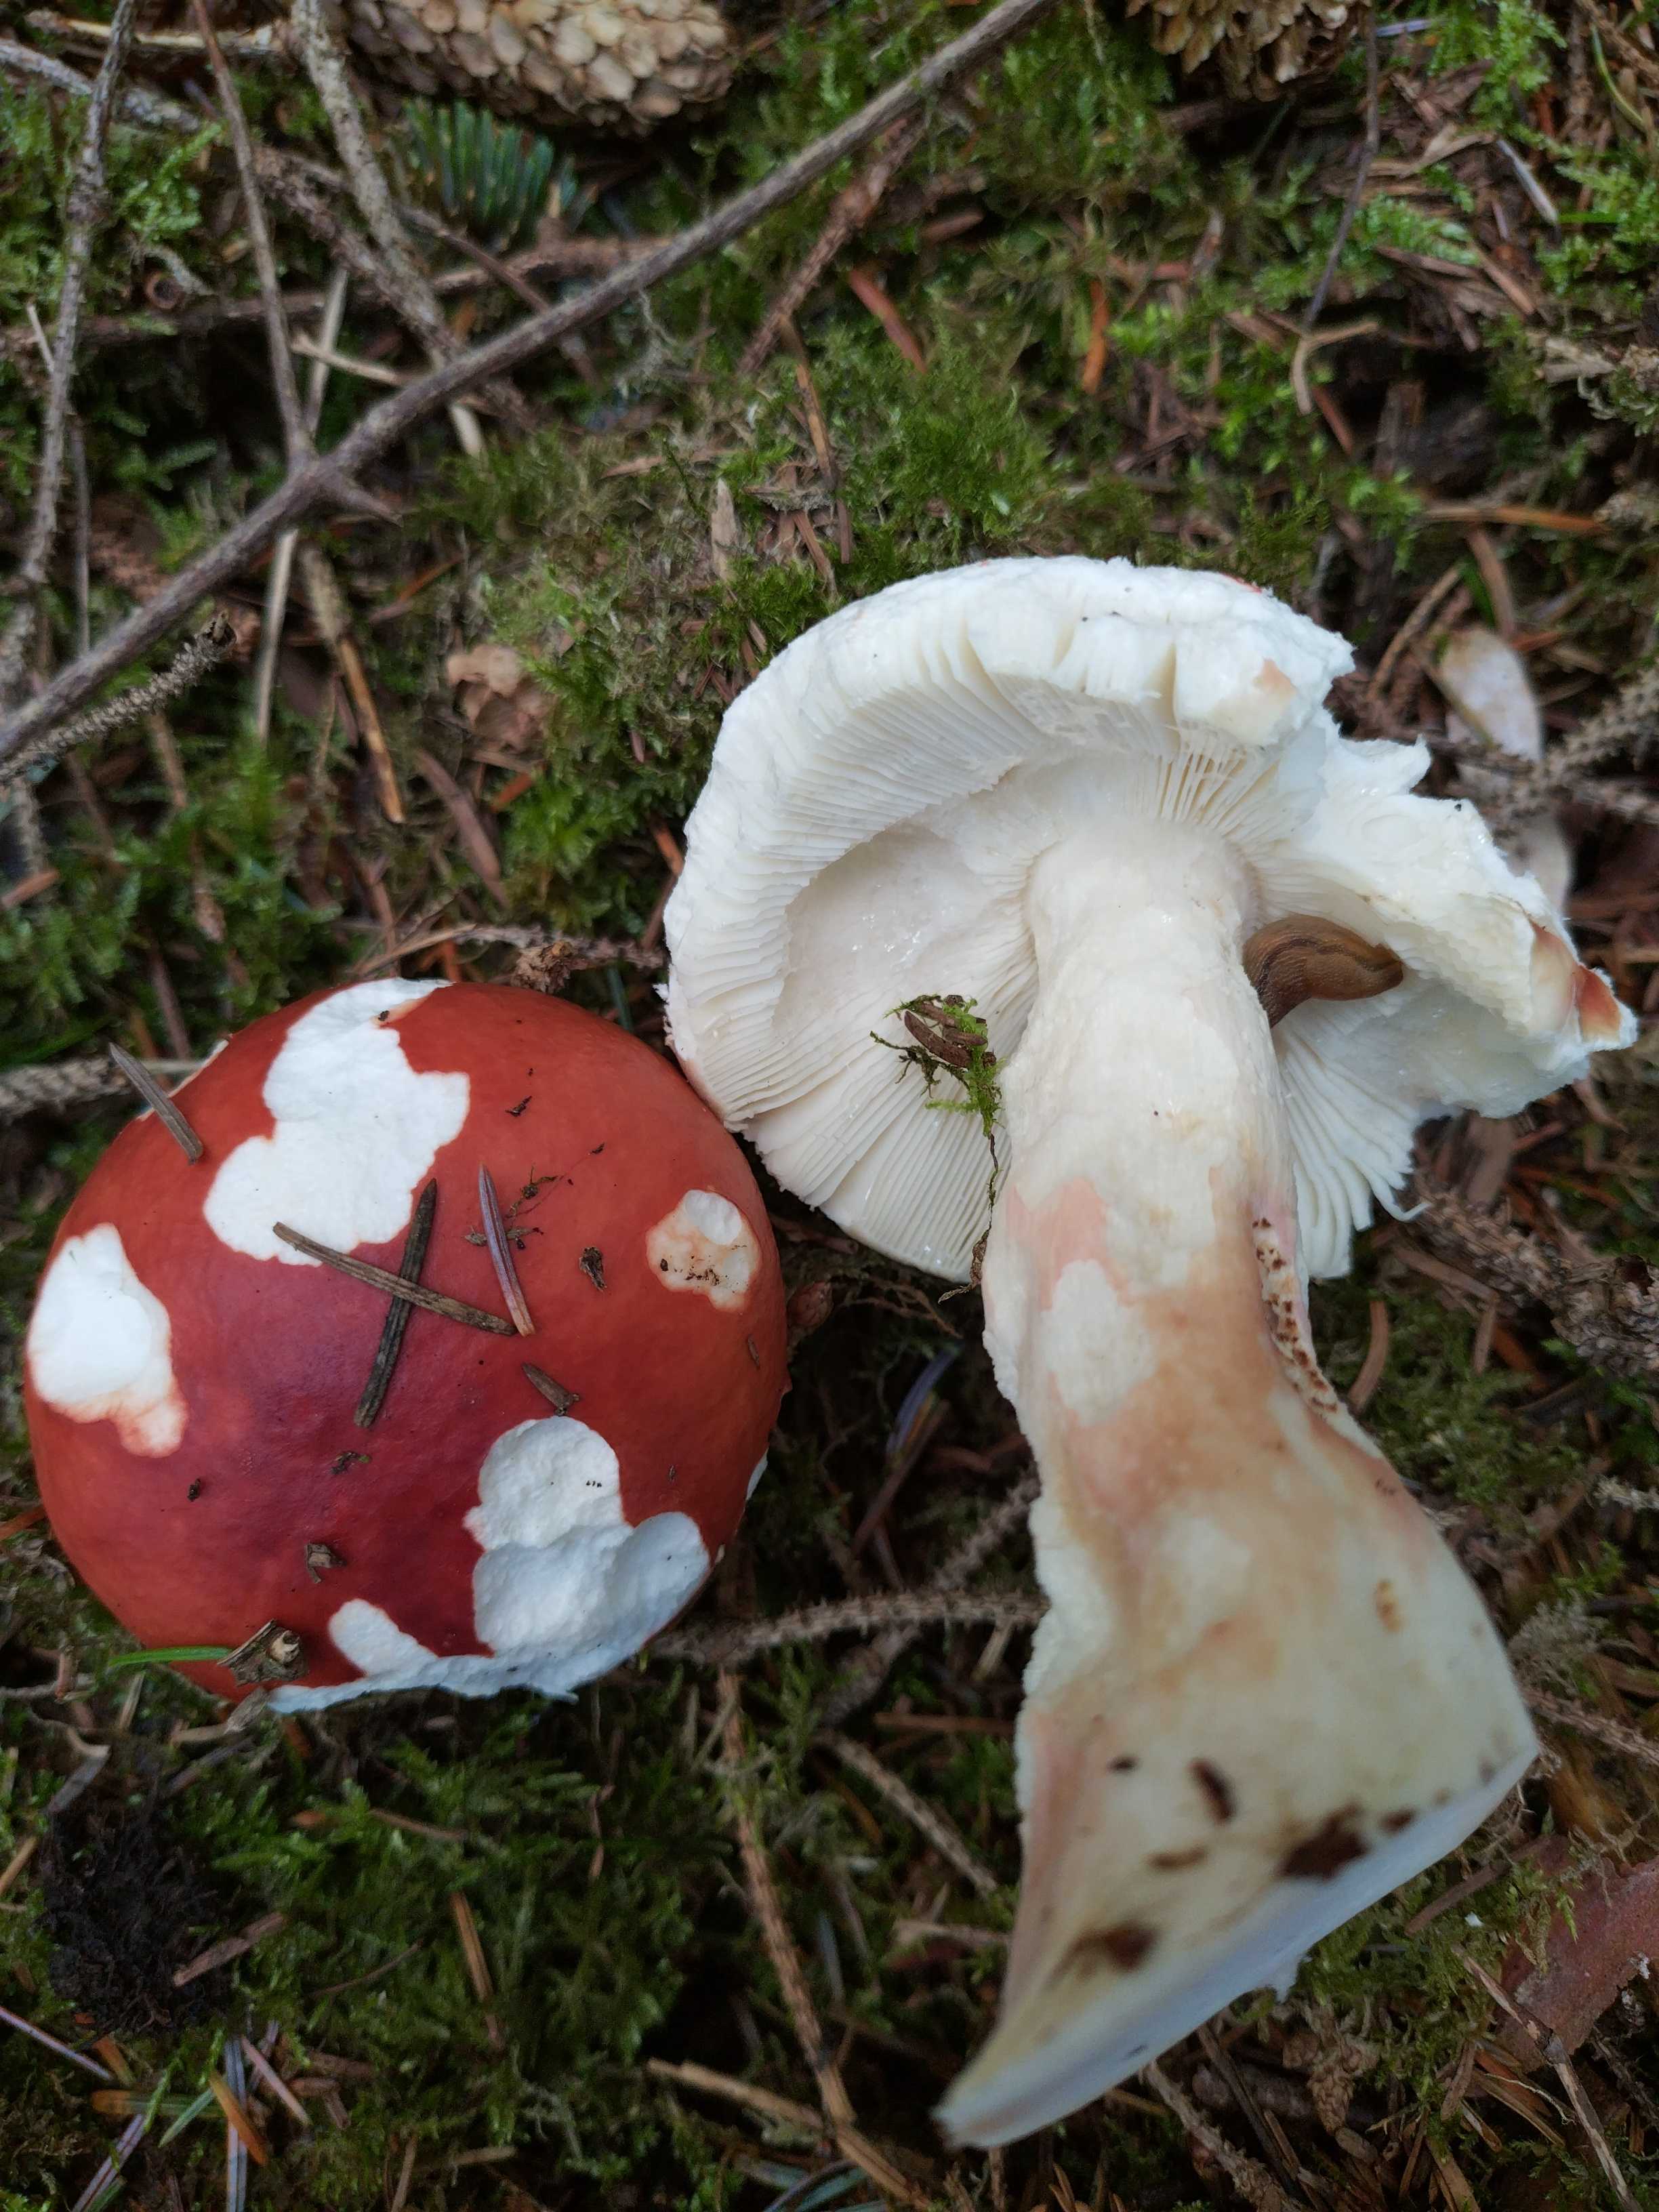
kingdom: Fungi
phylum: Basidiomycota
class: Agaricomycetes
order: Russulales
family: Russulaceae
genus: Russula
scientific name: Russula paludosa
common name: prægtig skørhat
